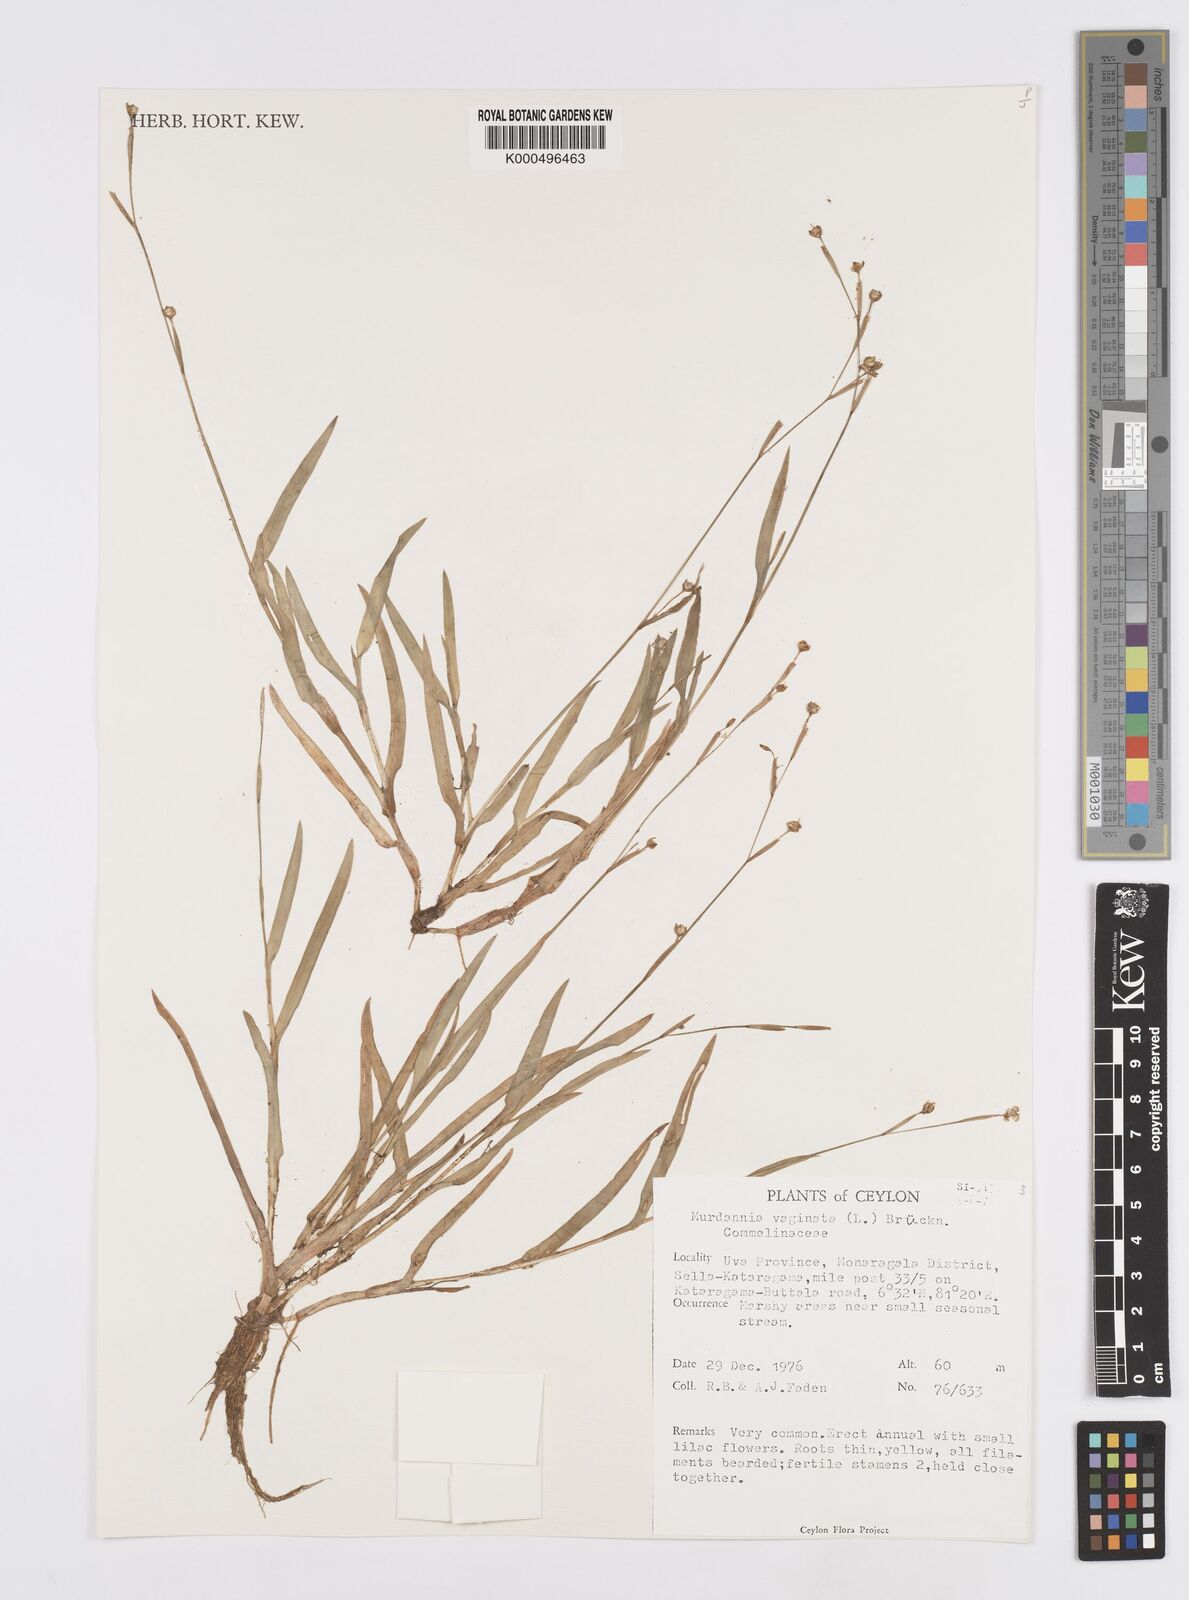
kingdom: Plantae
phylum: Tracheophyta
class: Liliopsida
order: Commelinales
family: Commelinaceae
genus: Murdannia
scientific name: Murdannia
